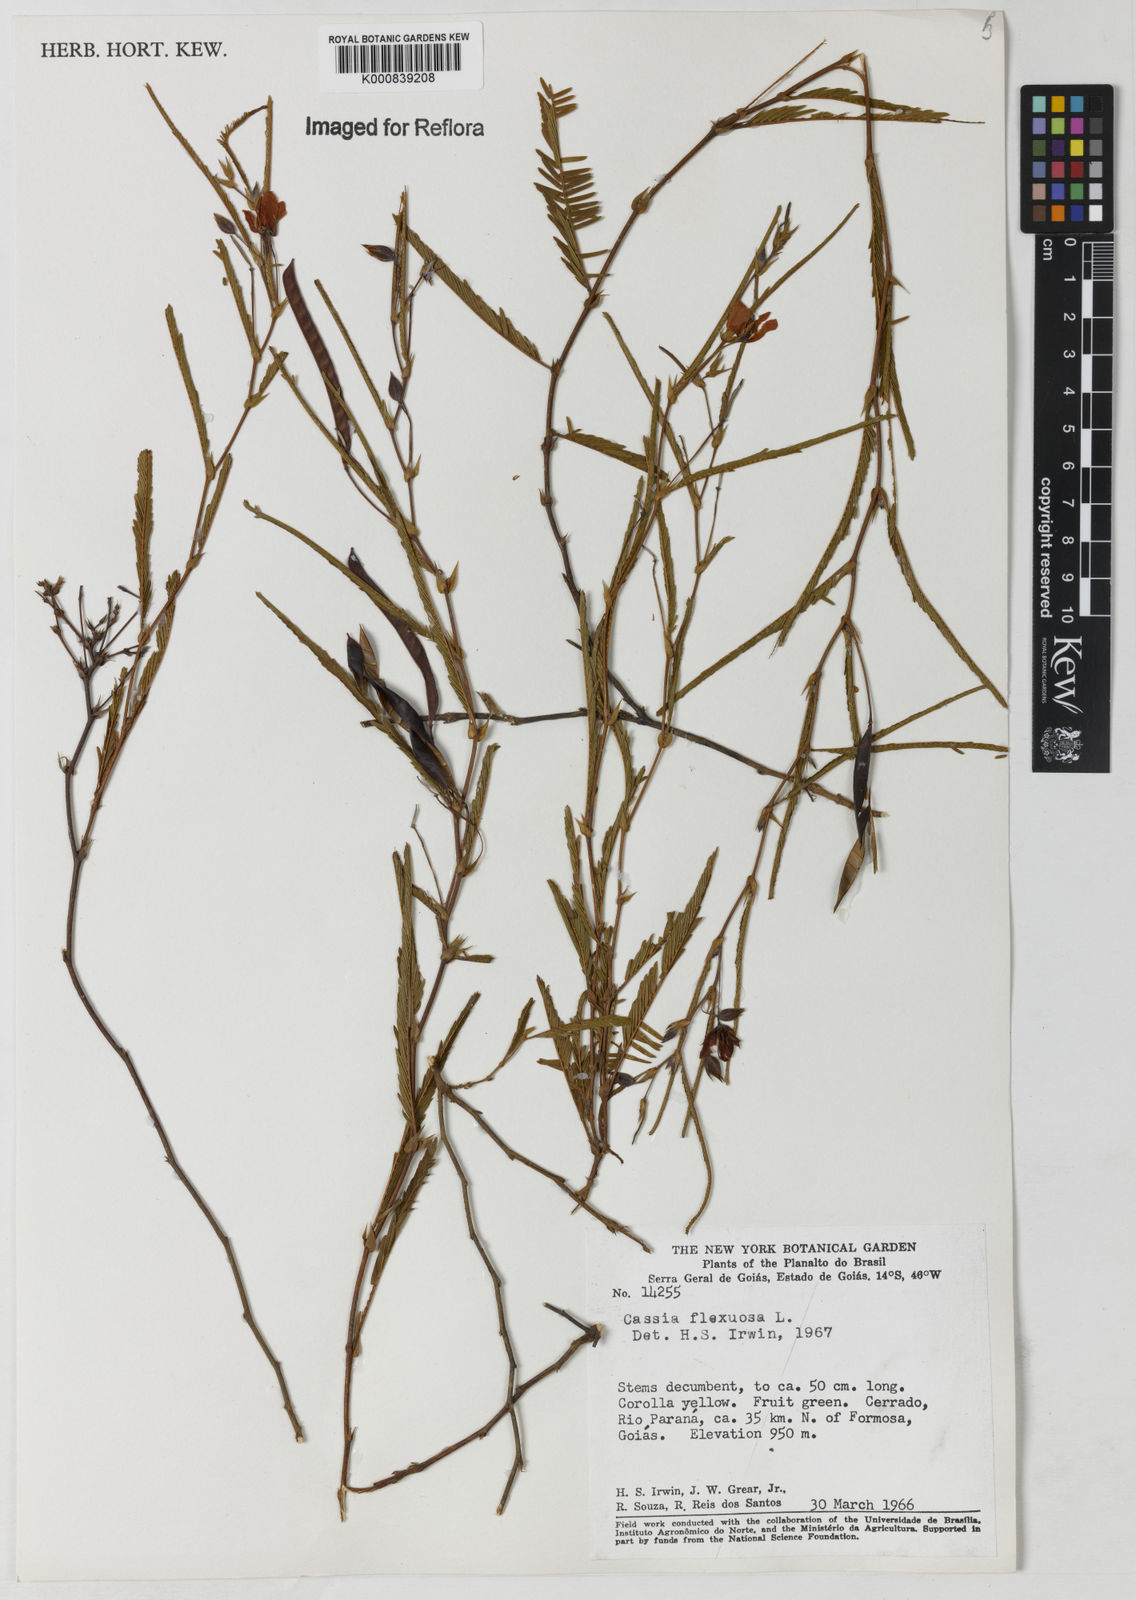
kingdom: Plantae
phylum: Tracheophyta
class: Magnoliopsida
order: Fabales
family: Fabaceae
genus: Chamaecrista
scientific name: Chamaecrista flexuosa
